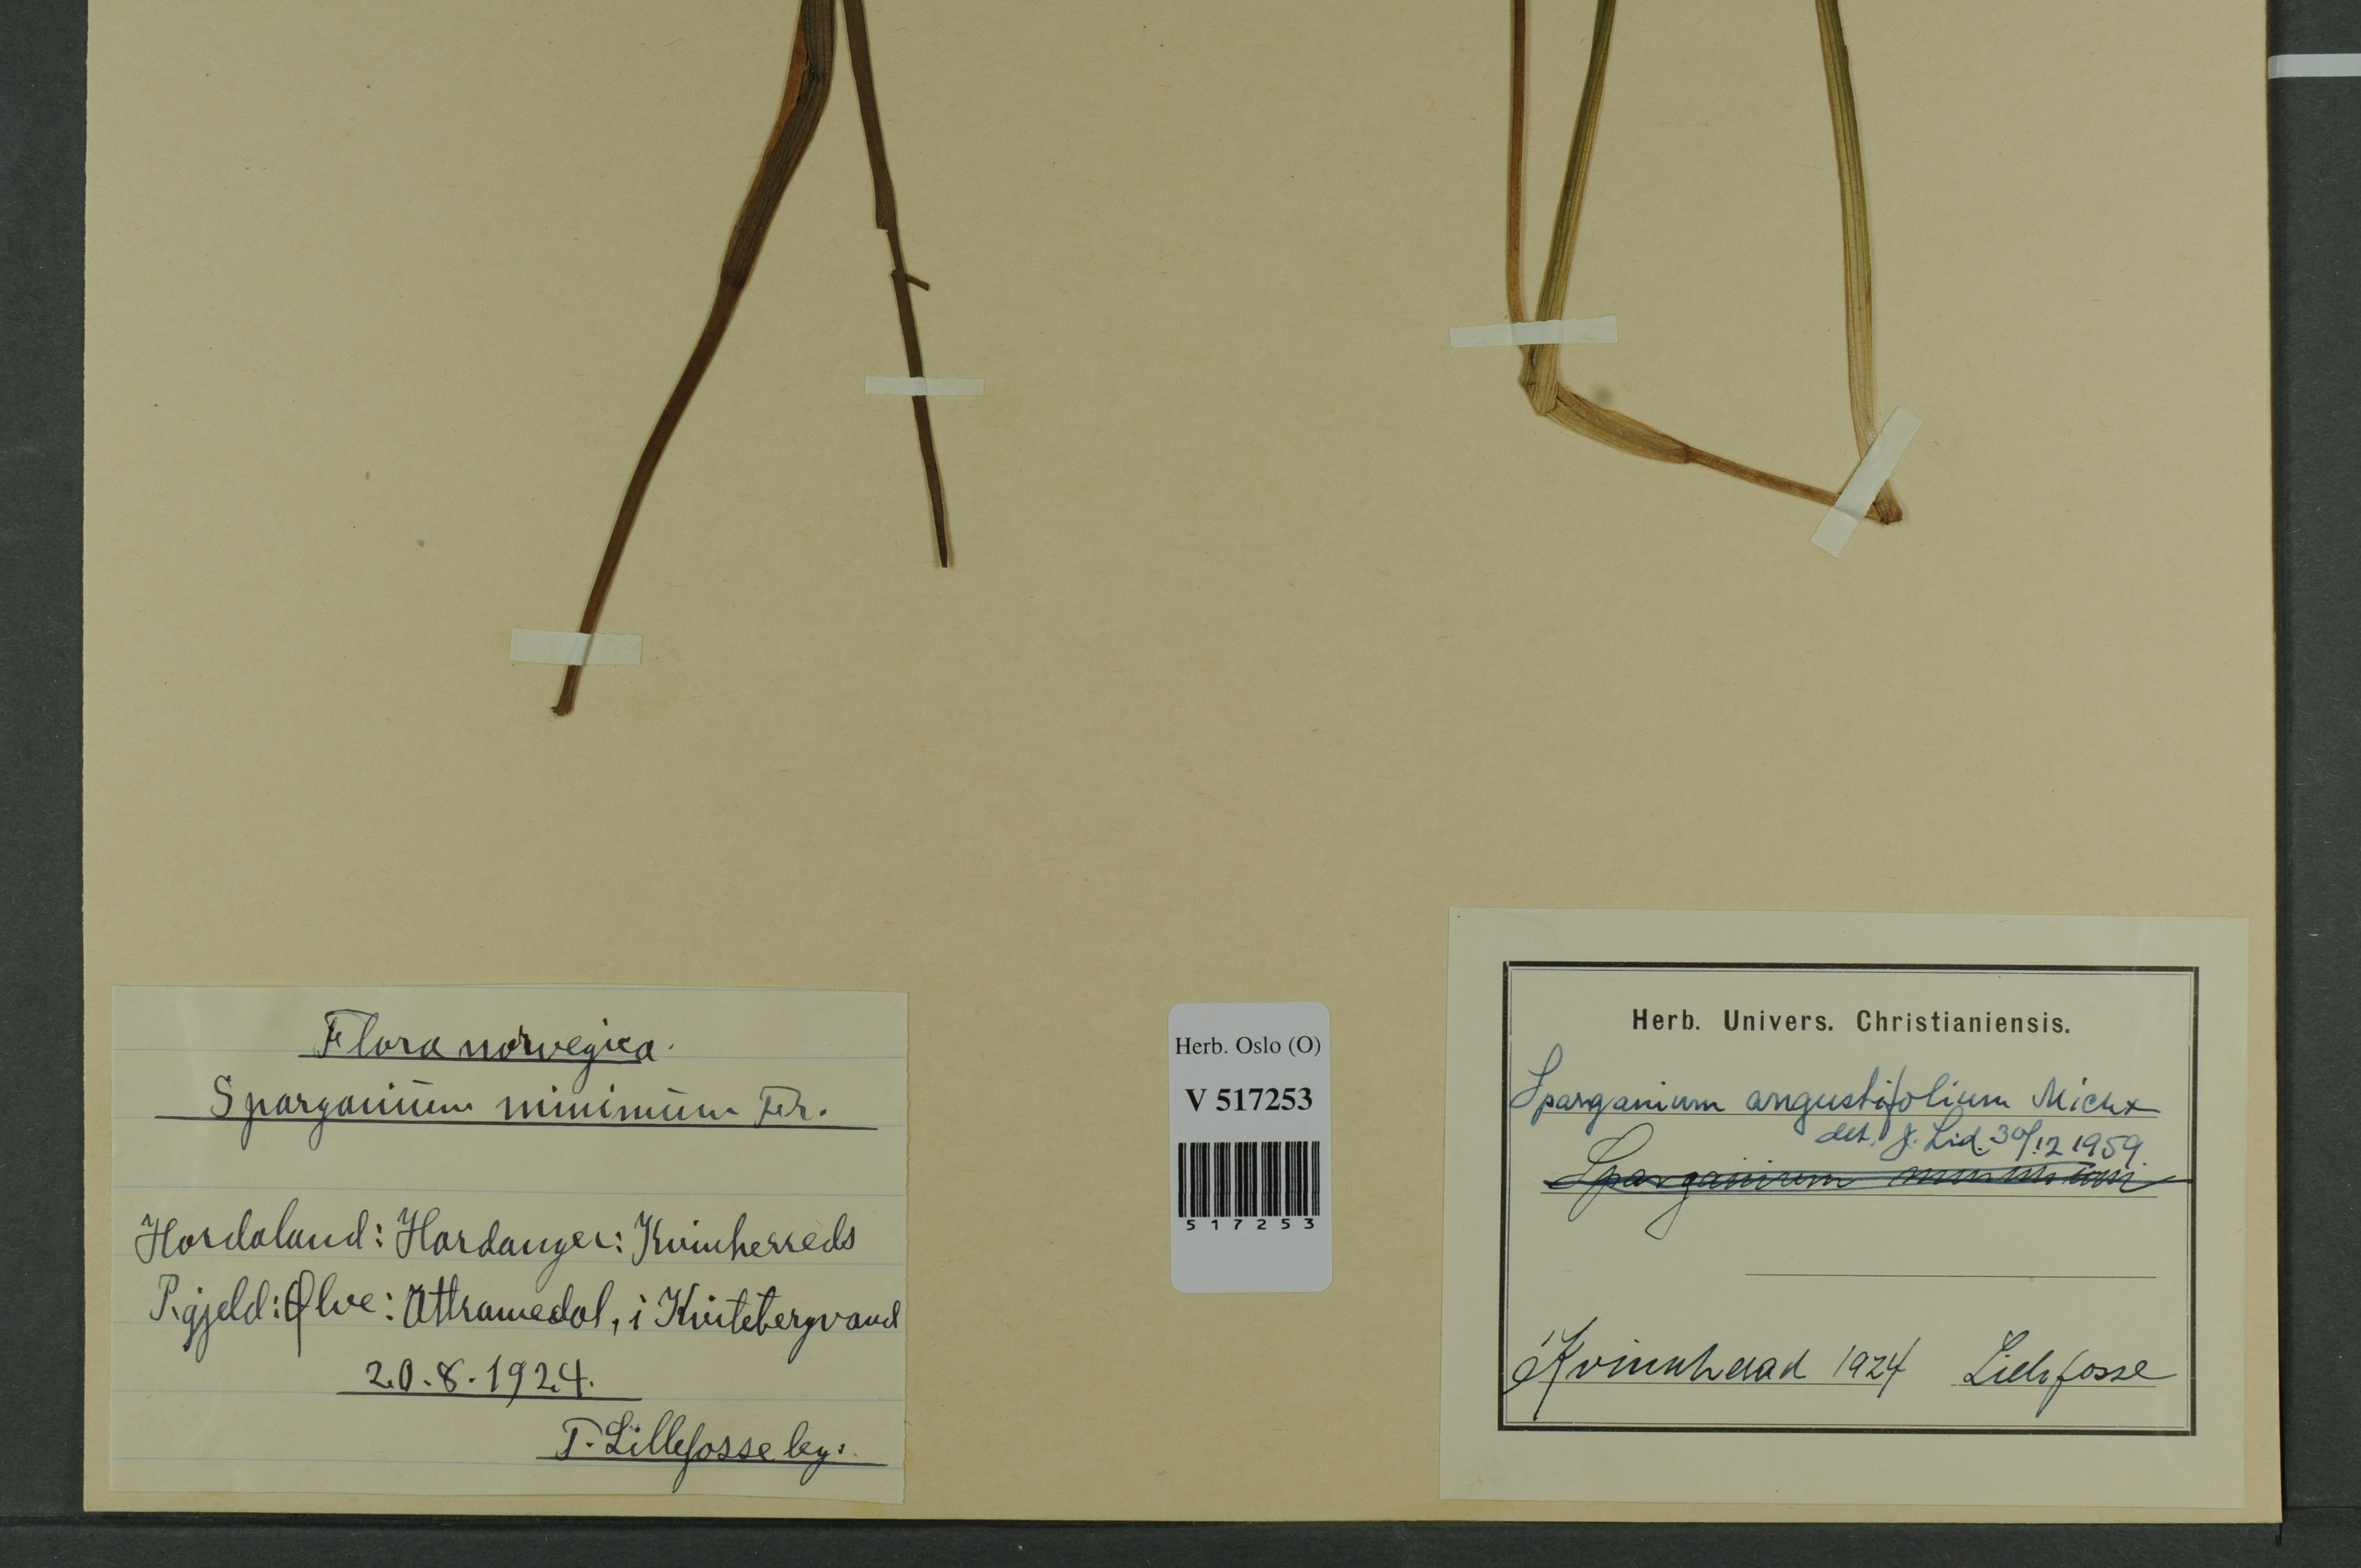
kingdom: Plantae
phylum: Tracheophyta
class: Liliopsida
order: Poales
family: Typhaceae
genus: Sparganium
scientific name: Sparganium angustifolium
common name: Floating bur-reed
